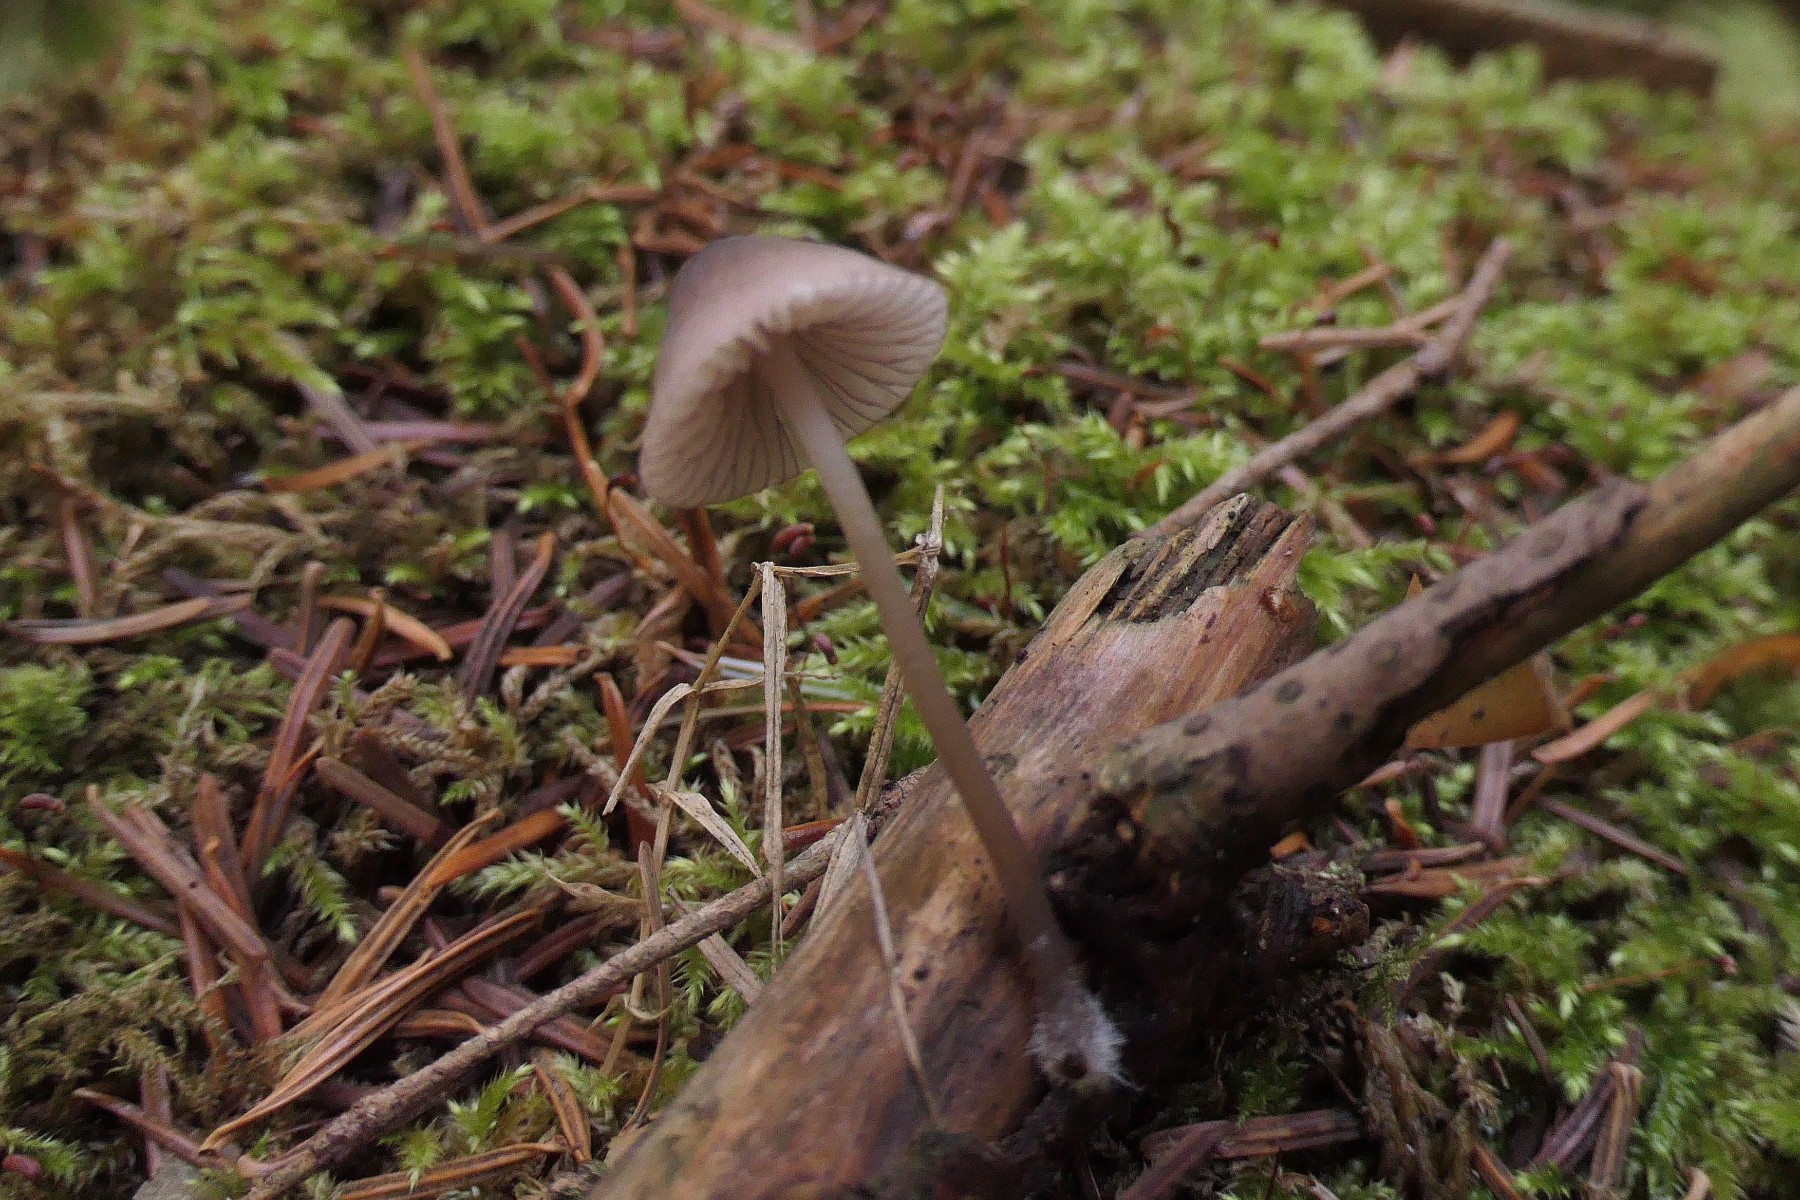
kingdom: Fungi
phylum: Basidiomycota
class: Agaricomycetes
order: Agaricales
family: Mycenaceae
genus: Mycena
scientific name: Mycena rubromarginata
